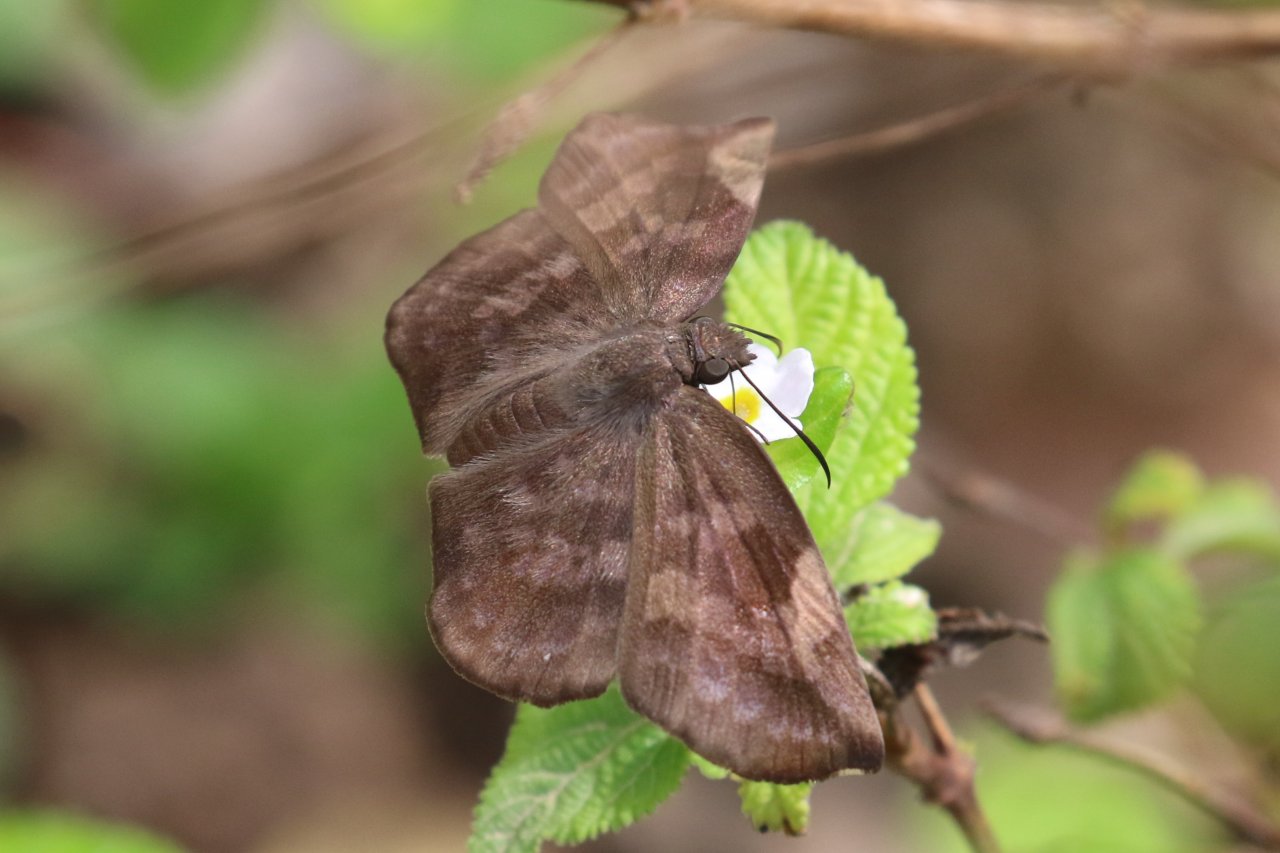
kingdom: Animalia
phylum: Arthropoda
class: Insecta
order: Lepidoptera
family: Hesperiidae
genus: Achlyodes
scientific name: Achlyodes thraso
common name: Sickle-winged Skipper
